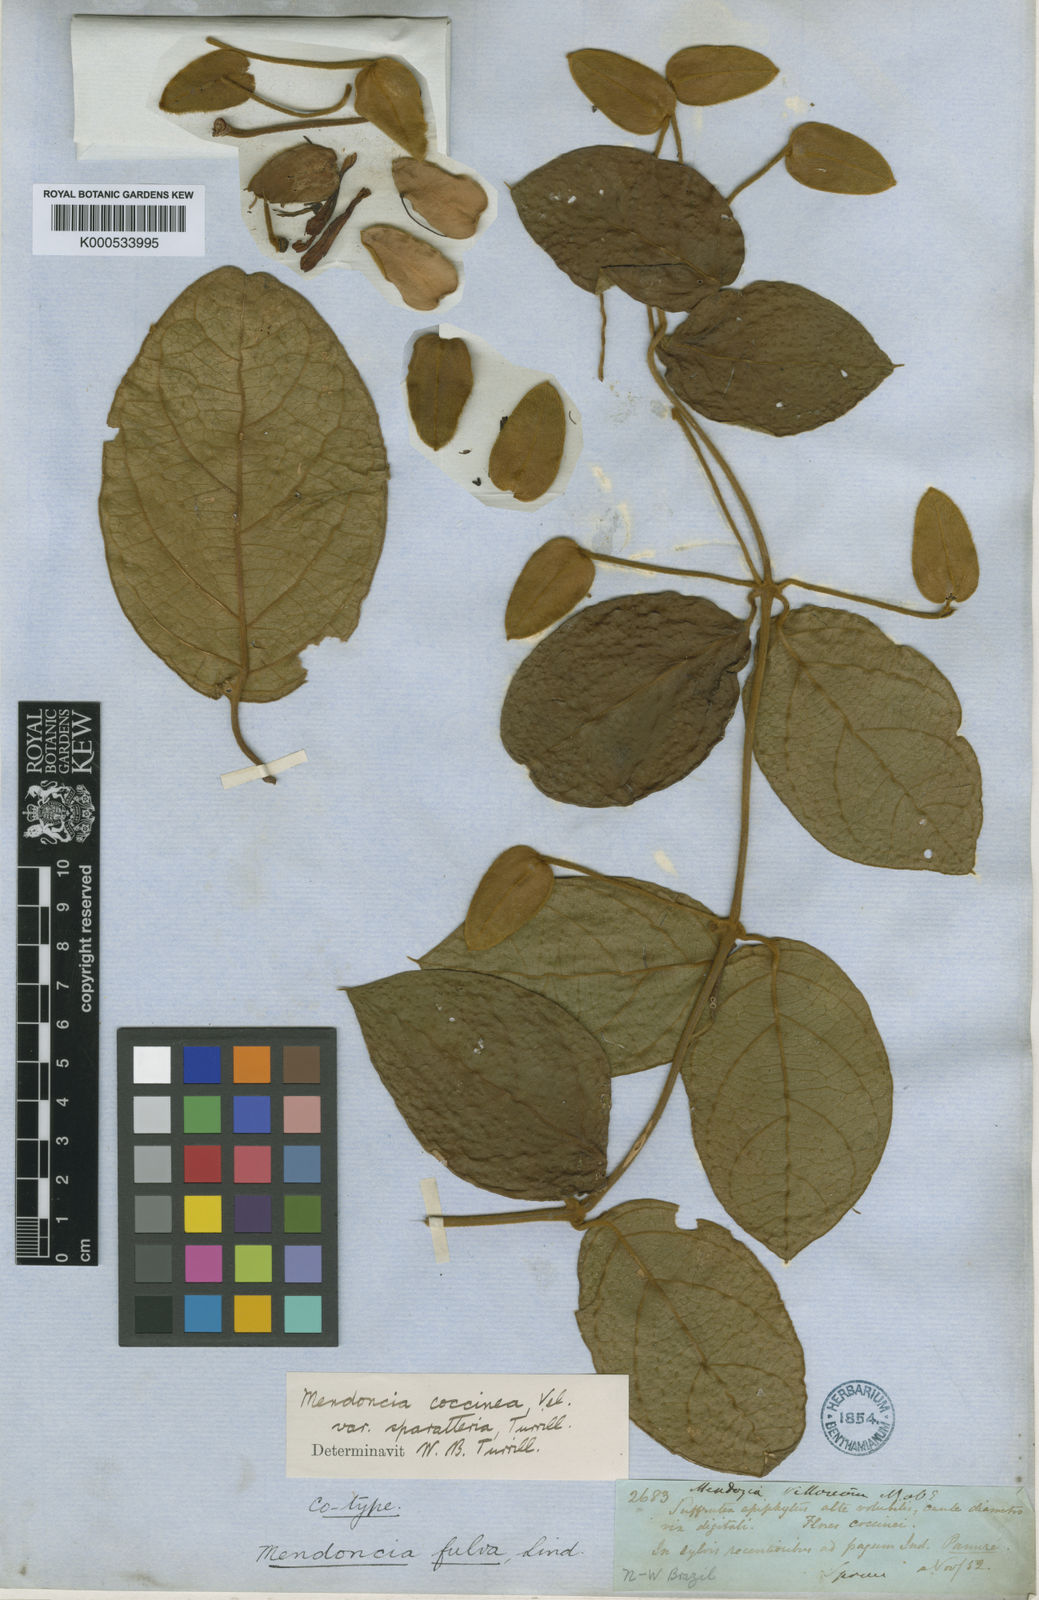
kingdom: Plantae
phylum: Tracheophyta
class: Magnoliopsida
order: Lamiales
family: Acanthaceae
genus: Mendoncia
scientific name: Mendoncia coccinea
